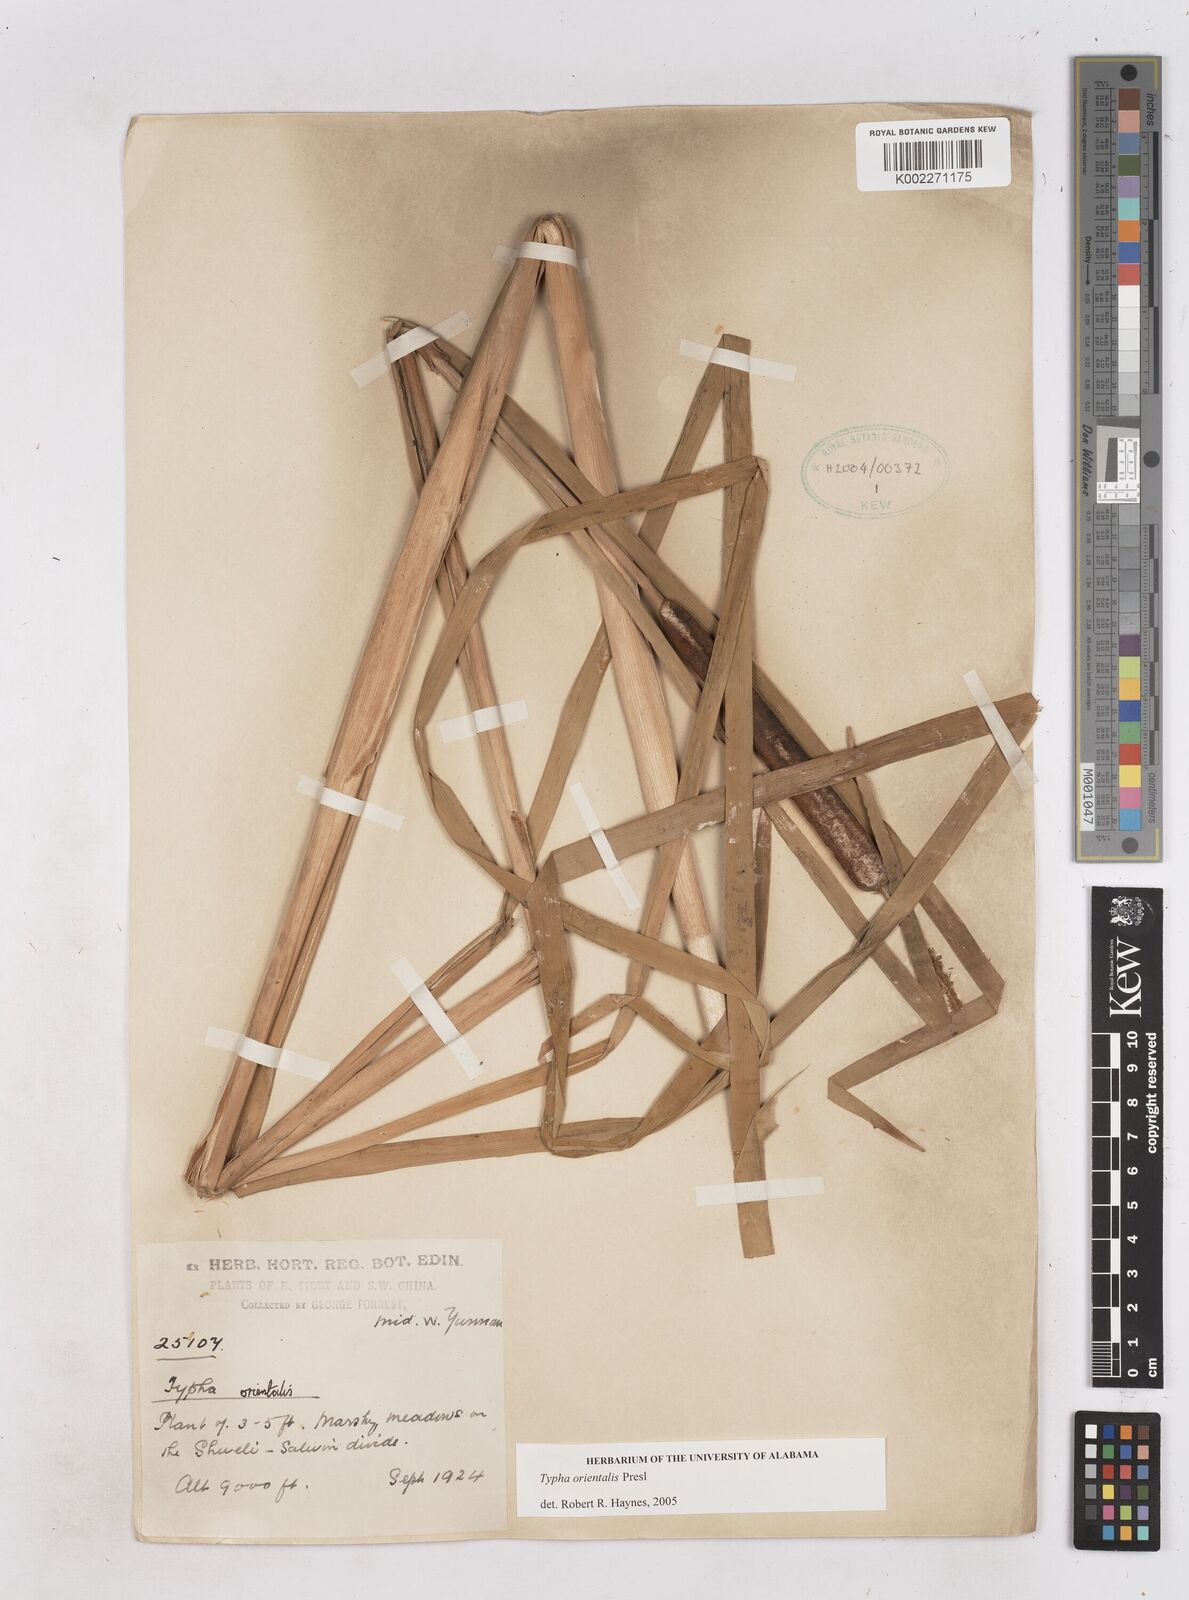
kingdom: Plantae
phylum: Tracheophyta
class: Liliopsida
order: Poales
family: Typhaceae
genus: Typha
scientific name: Typha shuttleworthii
